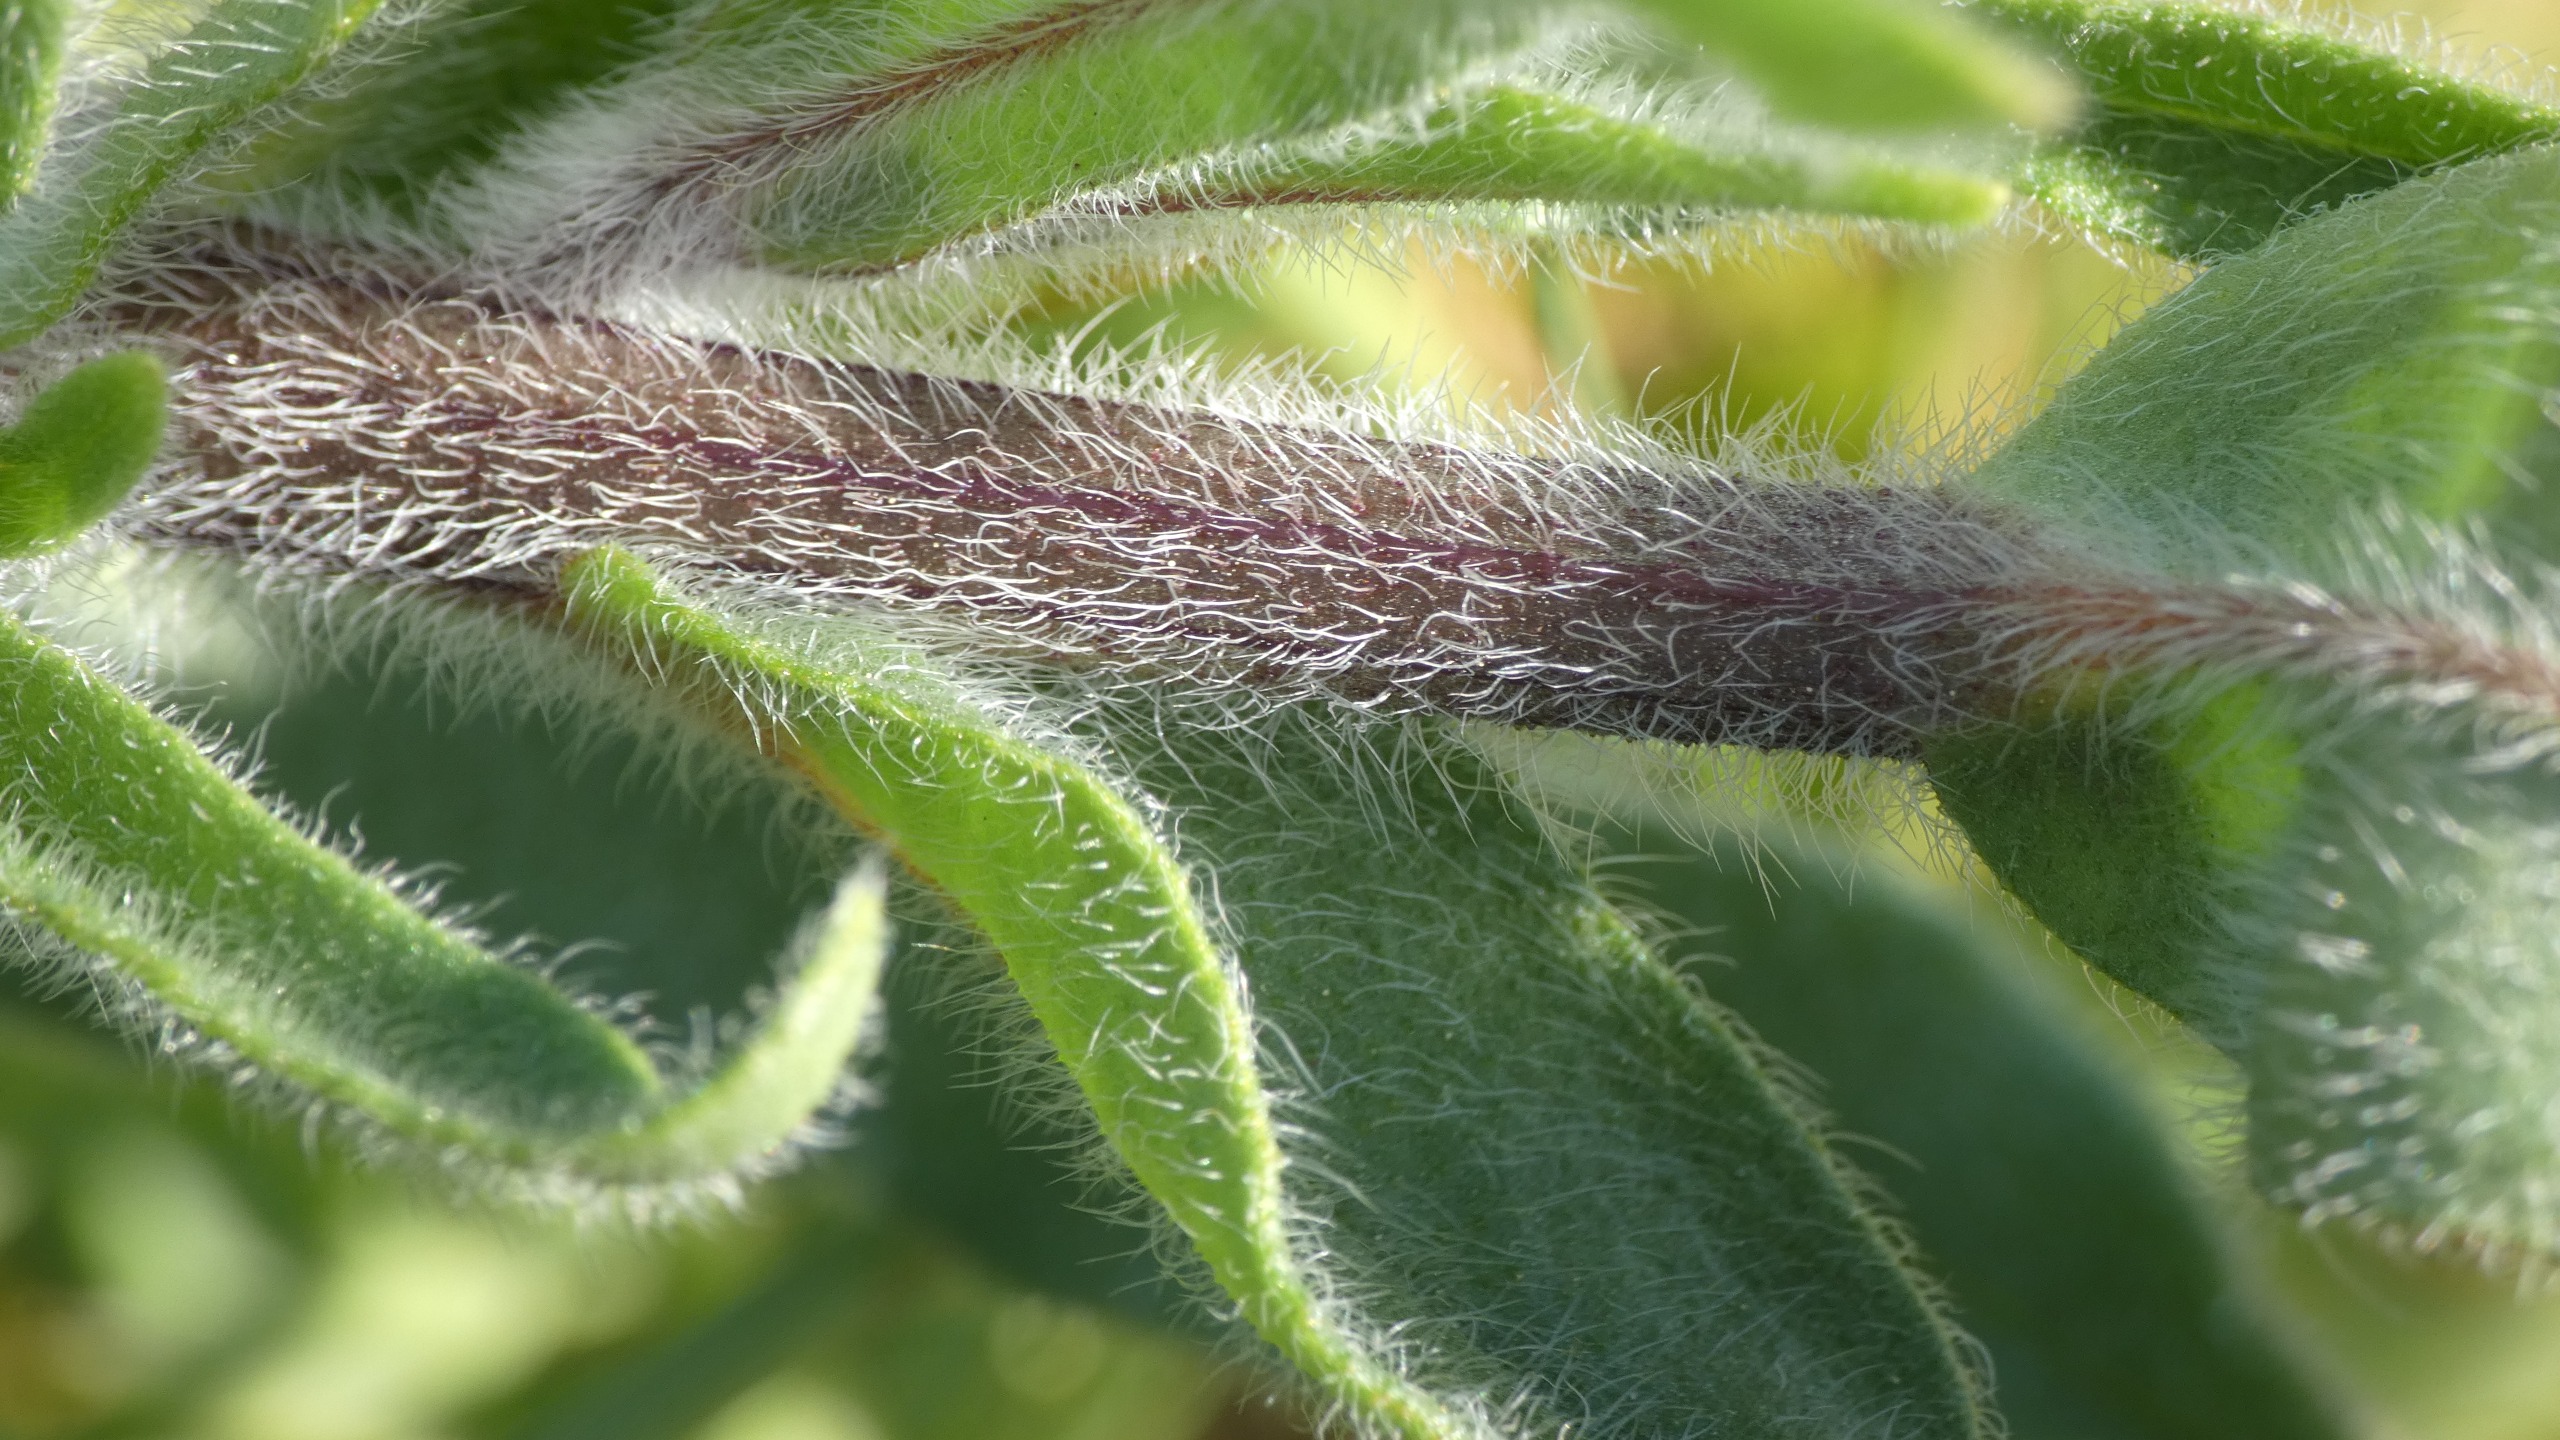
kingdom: Plantae
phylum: Tracheophyta
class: Magnoliopsida
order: Boraginales
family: Boraginaceae
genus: Anchusa
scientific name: Anchusa officinalis
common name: Læge-oksetunge
